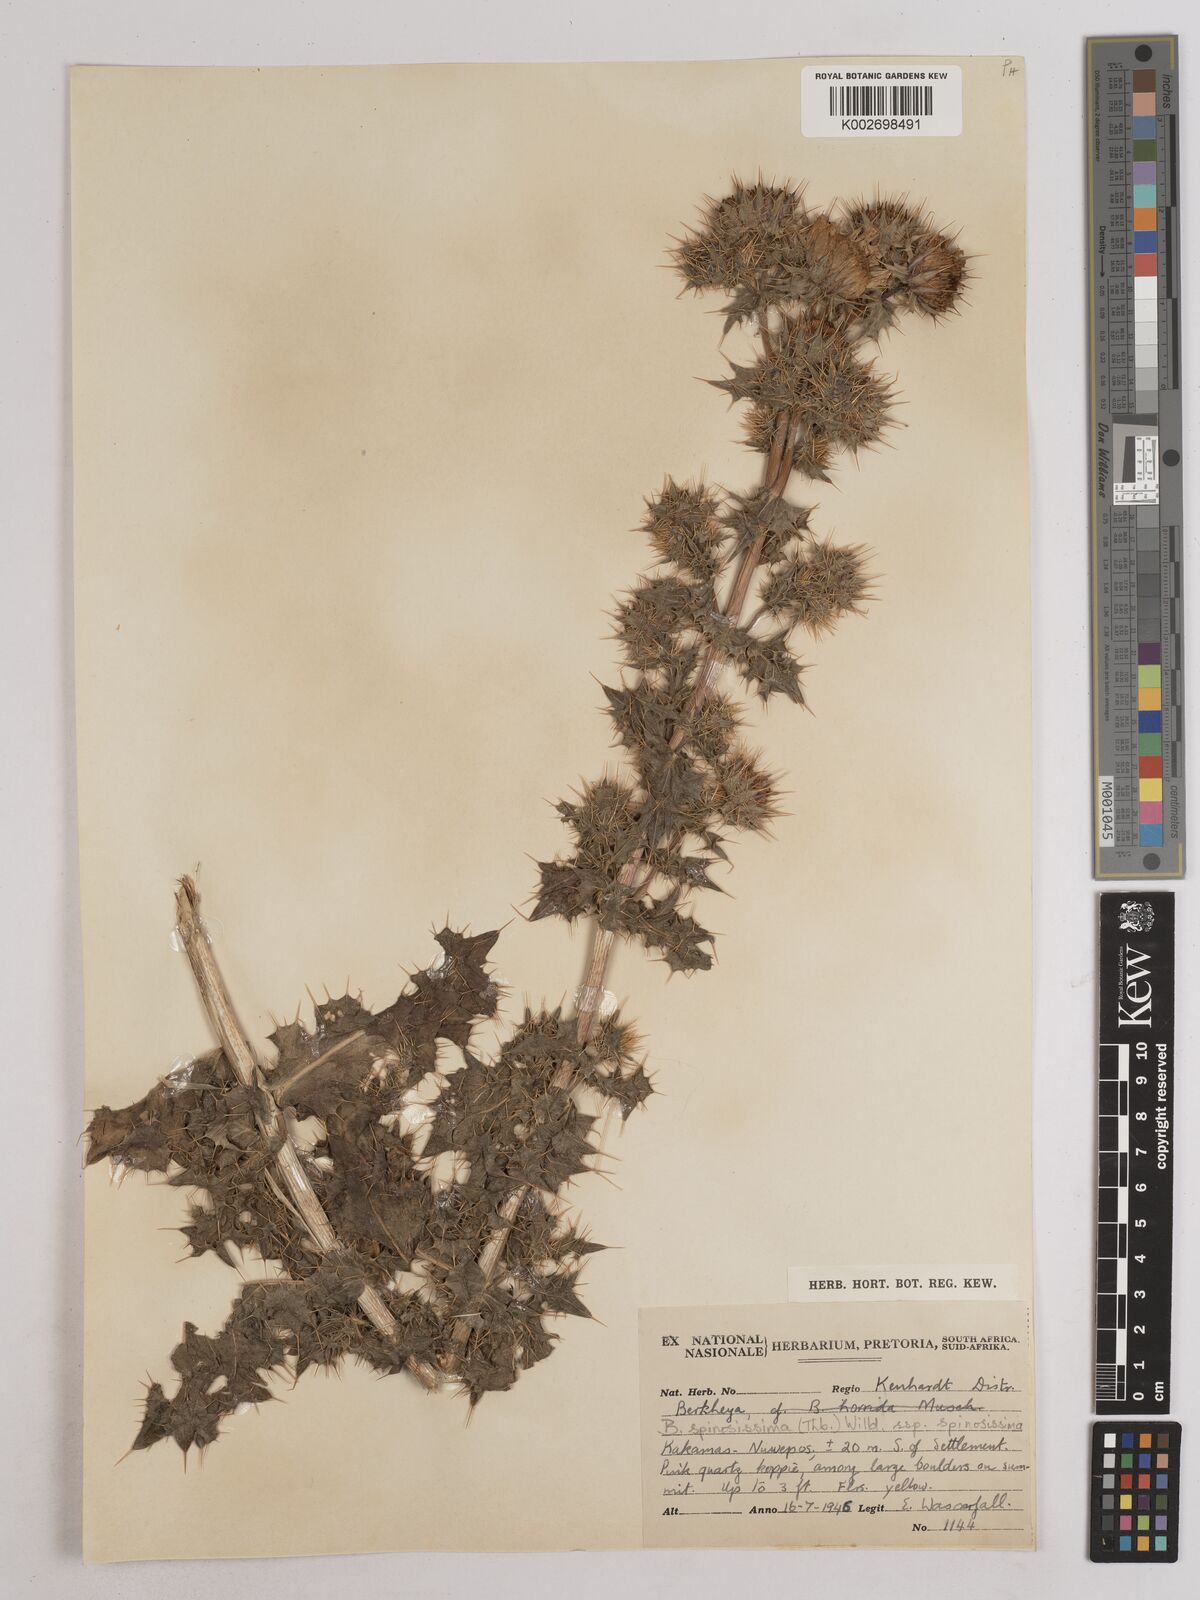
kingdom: Plantae
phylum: Tracheophyta
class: Magnoliopsida
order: Asterales
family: Asteraceae
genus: Berkheya
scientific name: Berkheya spinosissima
